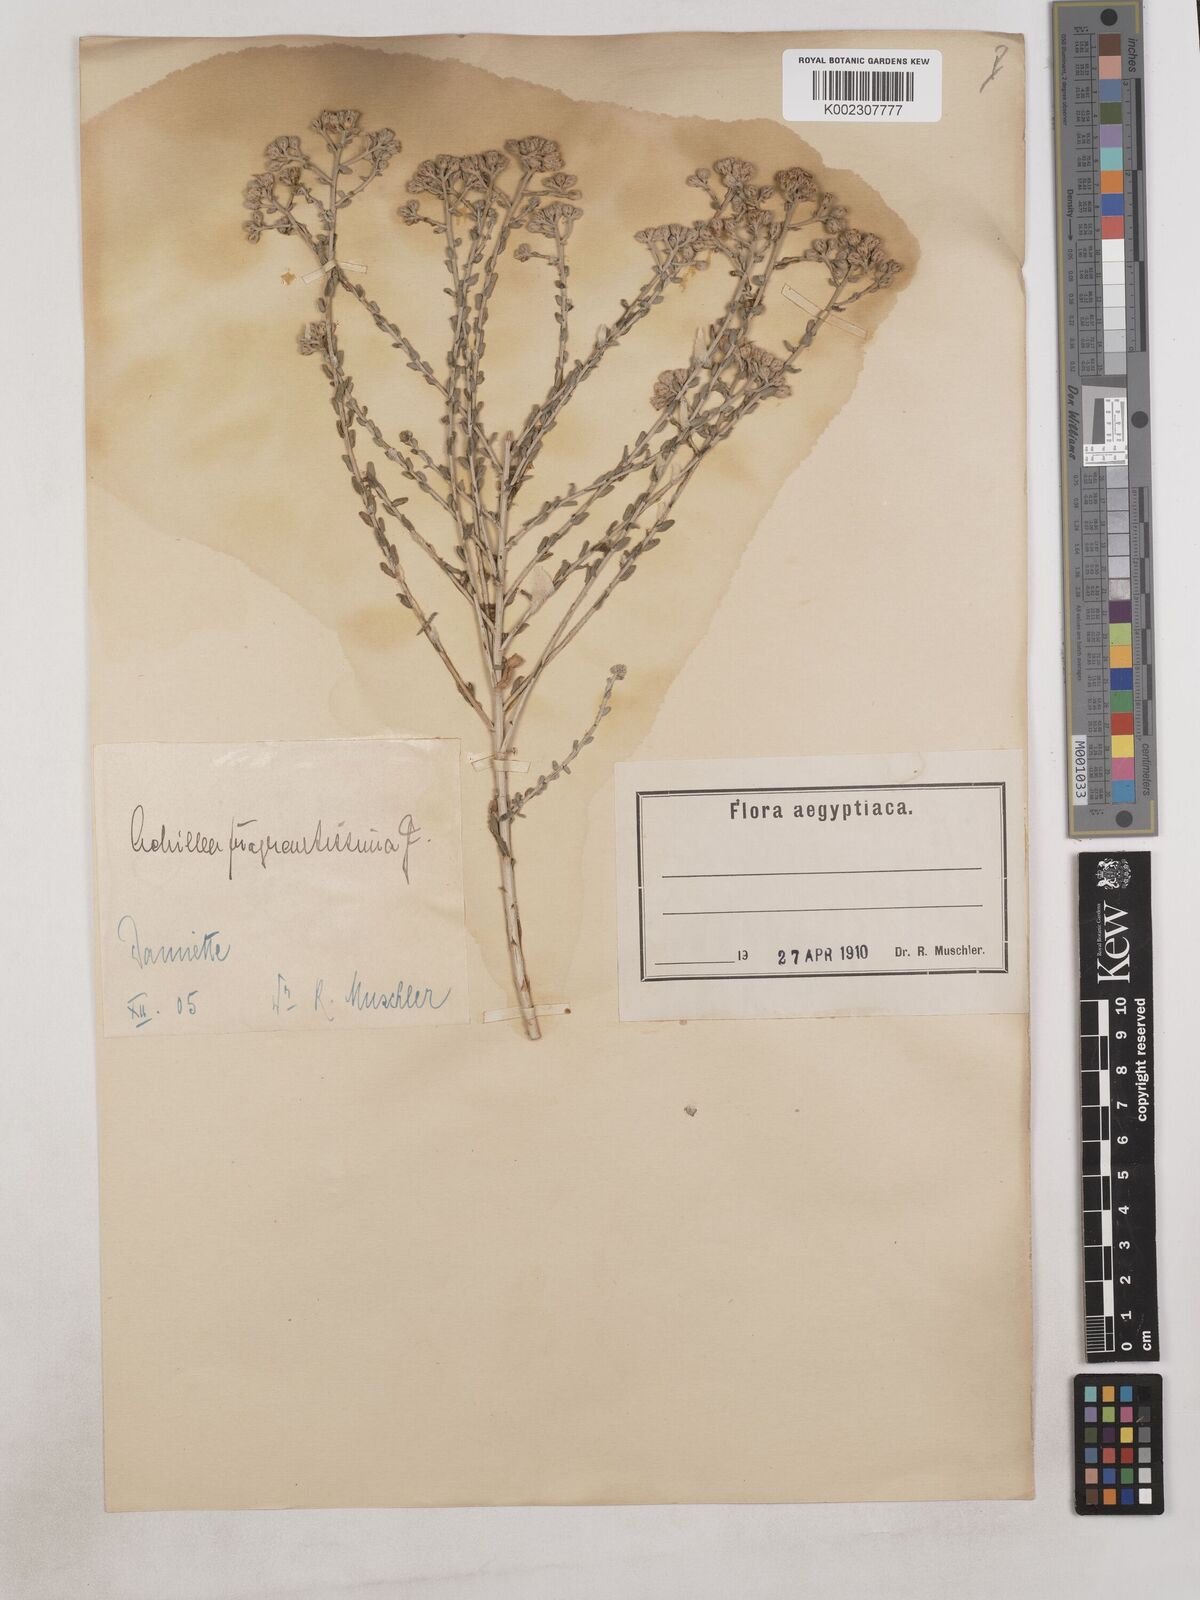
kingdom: Plantae
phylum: Tracheophyta
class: Magnoliopsida
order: Asterales
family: Asteraceae
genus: Achillea
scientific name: Achillea fragrantissima
